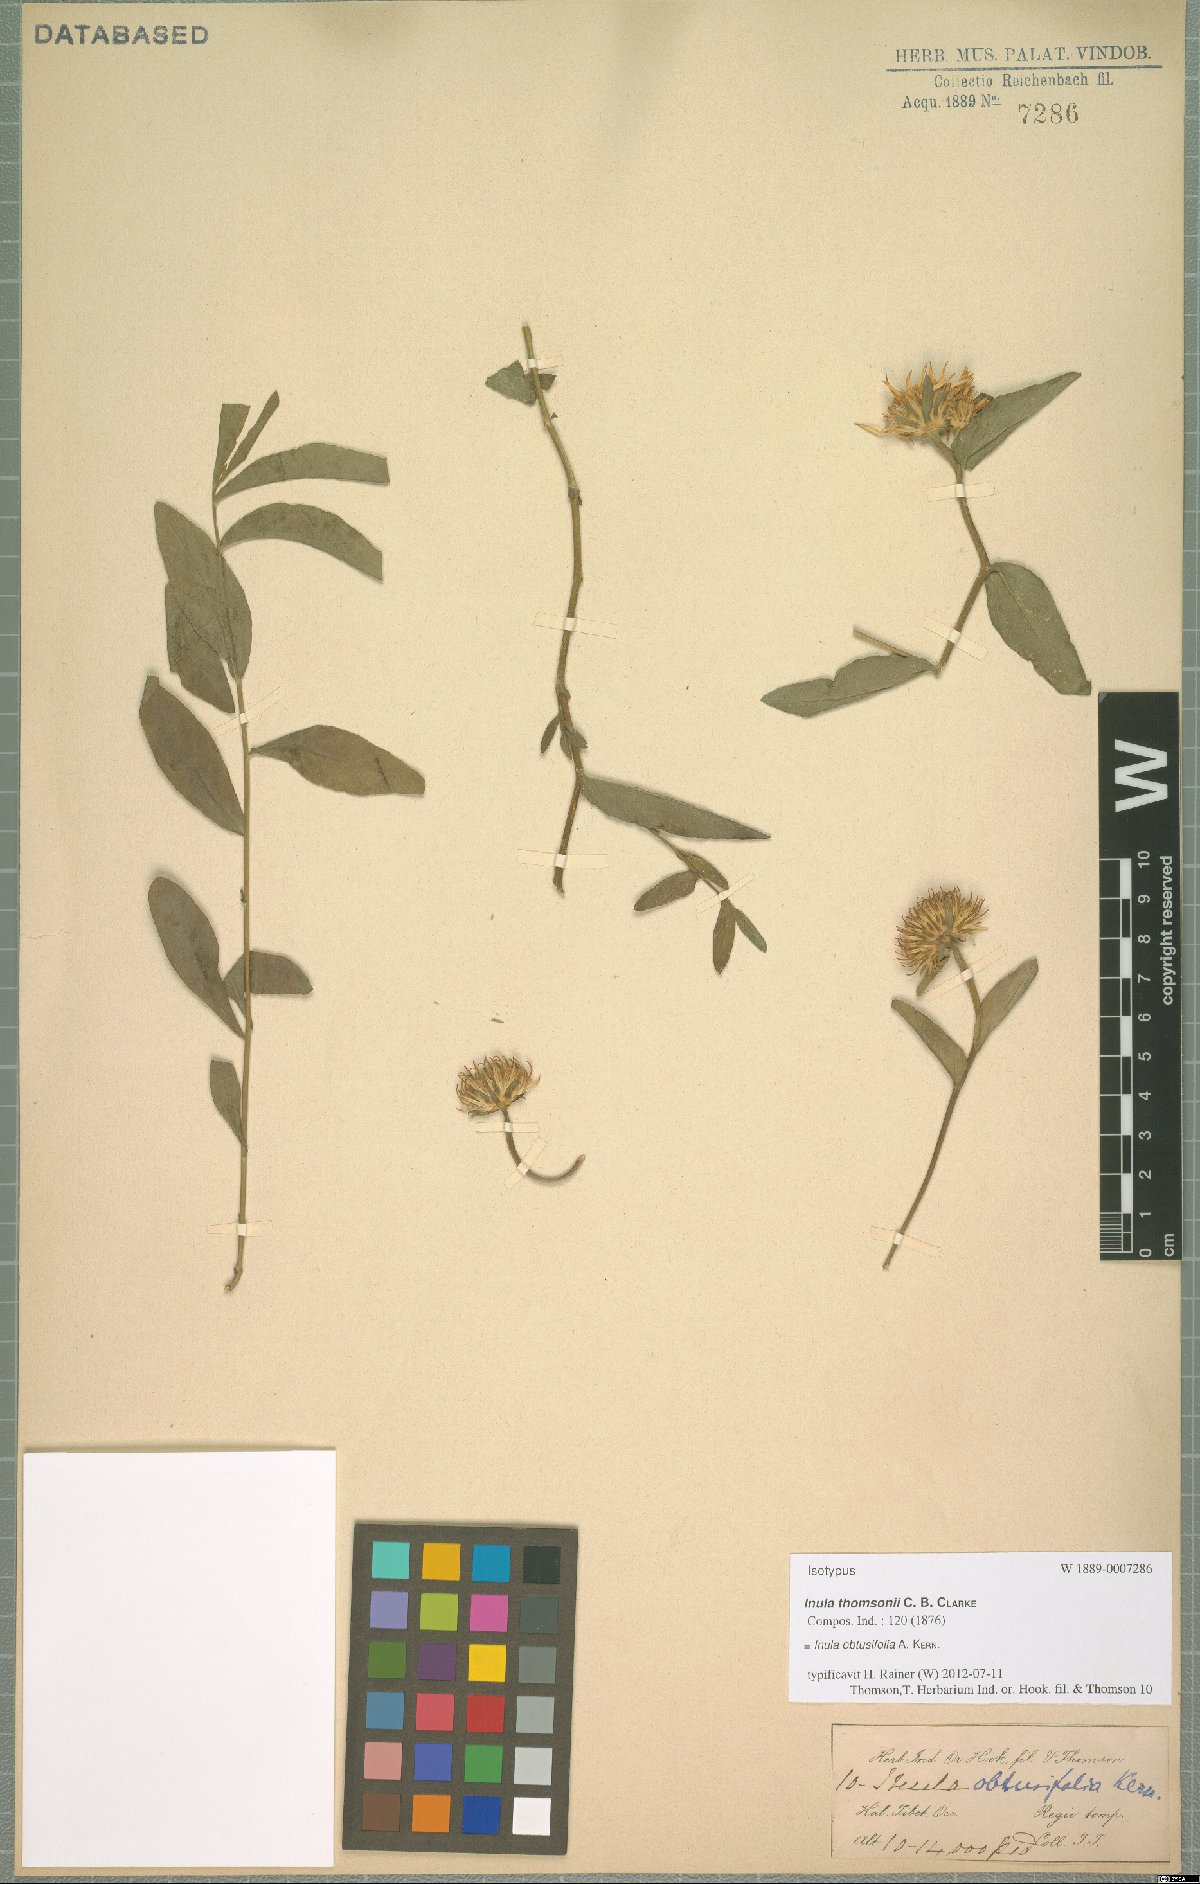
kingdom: Plantae
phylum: Tracheophyta
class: Magnoliopsida
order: Asterales
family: Asteraceae
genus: Inula
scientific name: Inula obtusifolia
